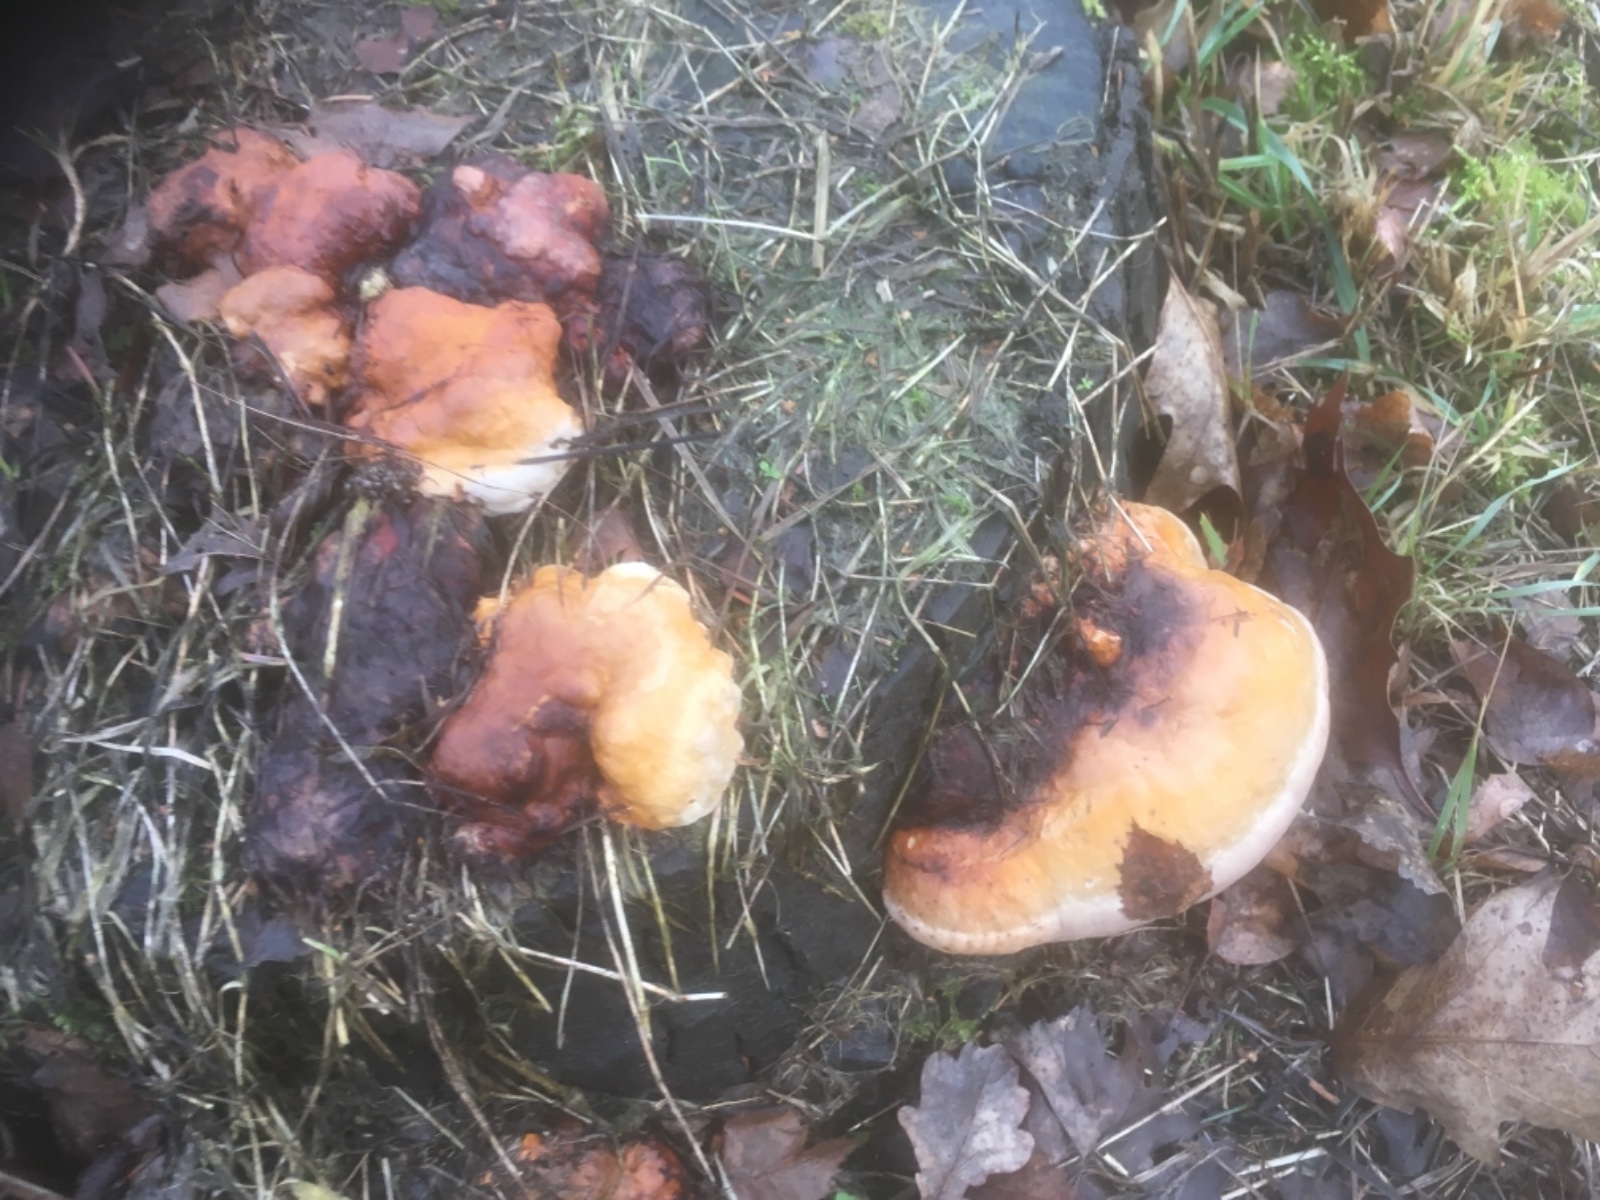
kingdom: Fungi
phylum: Basidiomycota
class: Agaricomycetes
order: Polyporales
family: Fomitopsidaceae
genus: Fomitopsis
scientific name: Fomitopsis pinicola
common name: randbæltet hovporesvamp
